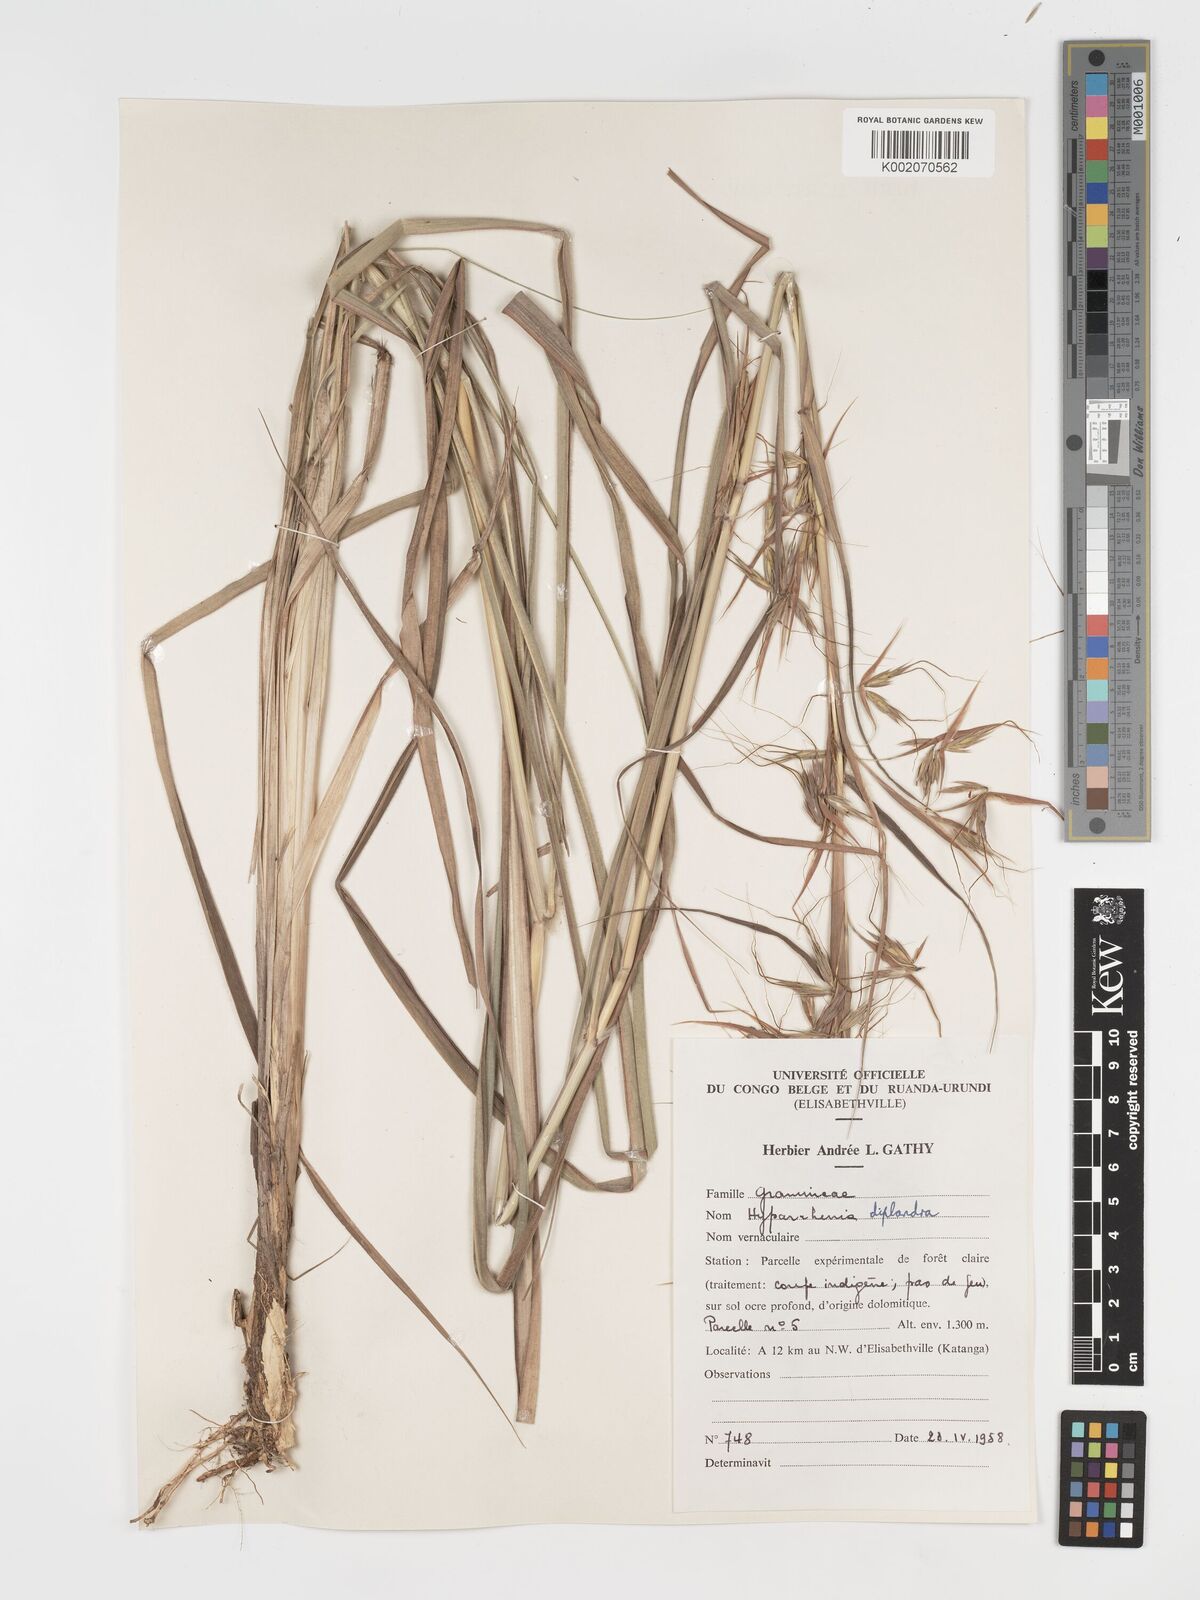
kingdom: Plantae
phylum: Tracheophyta
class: Liliopsida
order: Poales
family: Poaceae
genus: Hyparrhenia
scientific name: Hyparrhenia diplandra
